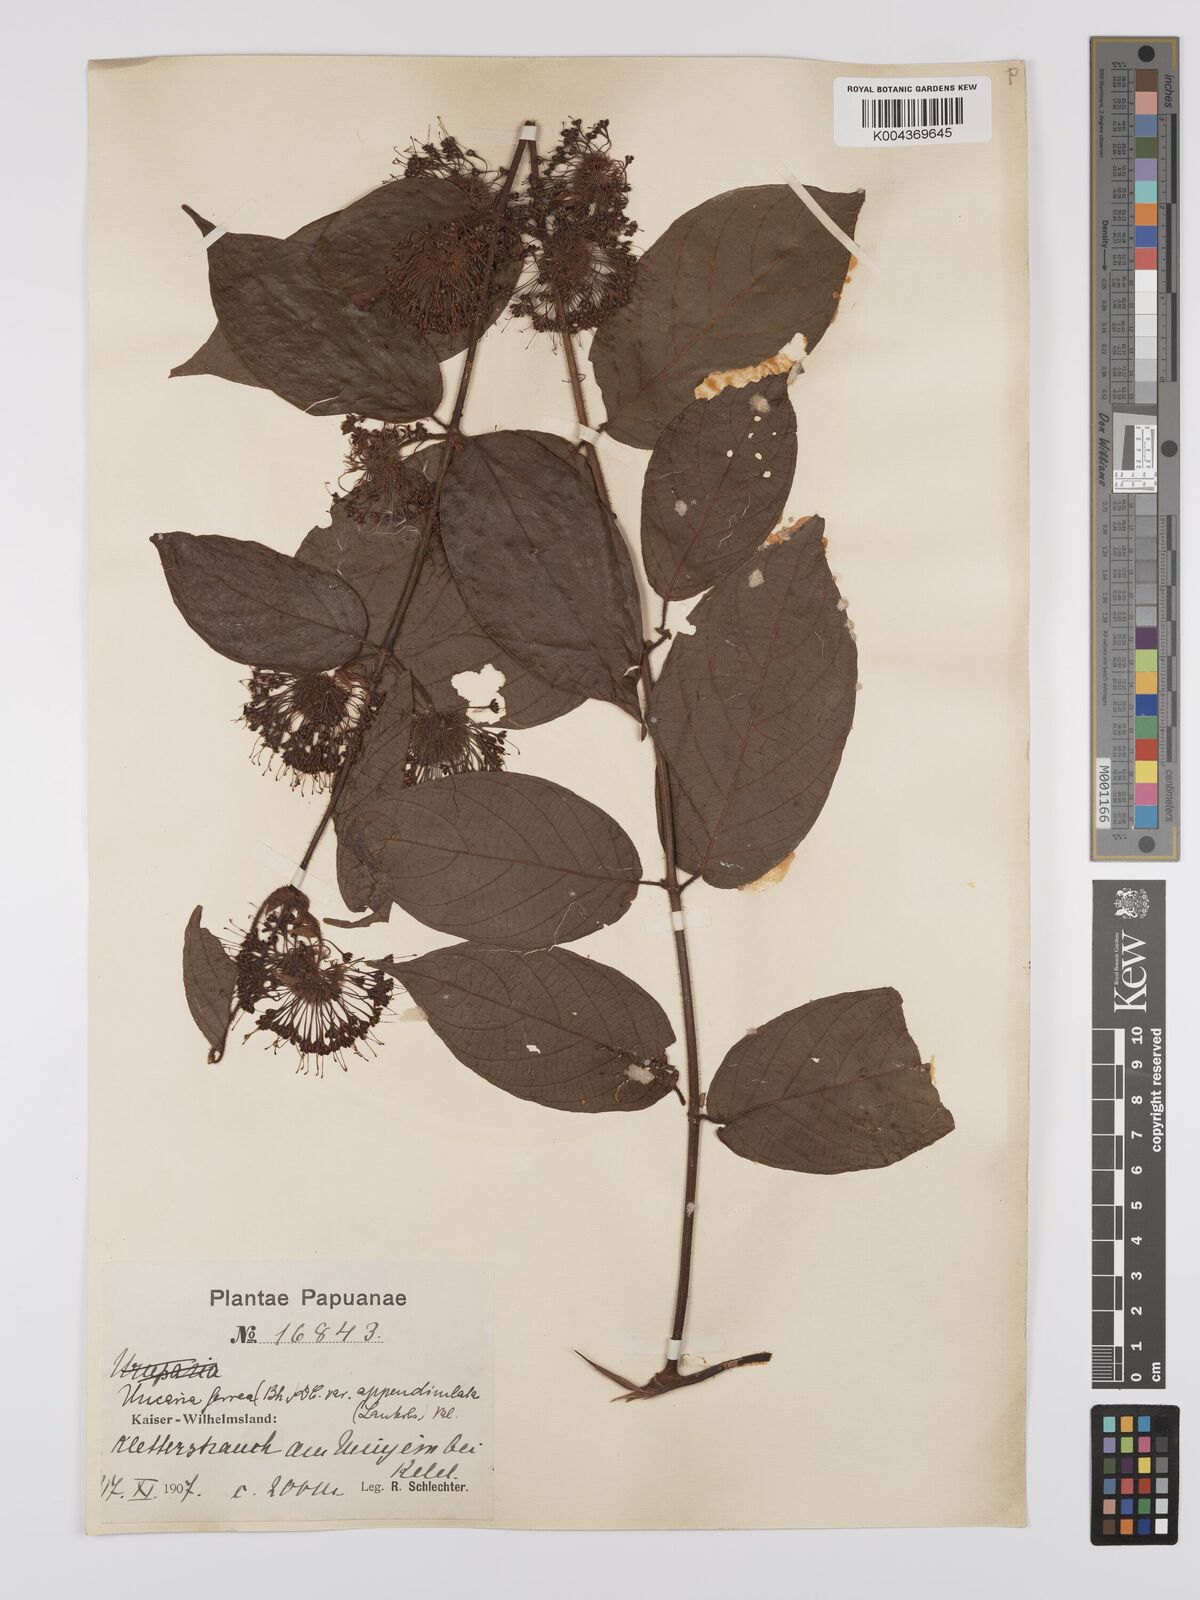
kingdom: Plantae
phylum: Tracheophyta
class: Magnoliopsida
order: Gentianales
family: Rubiaceae
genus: Uncaria
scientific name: Uncaria lanosa
